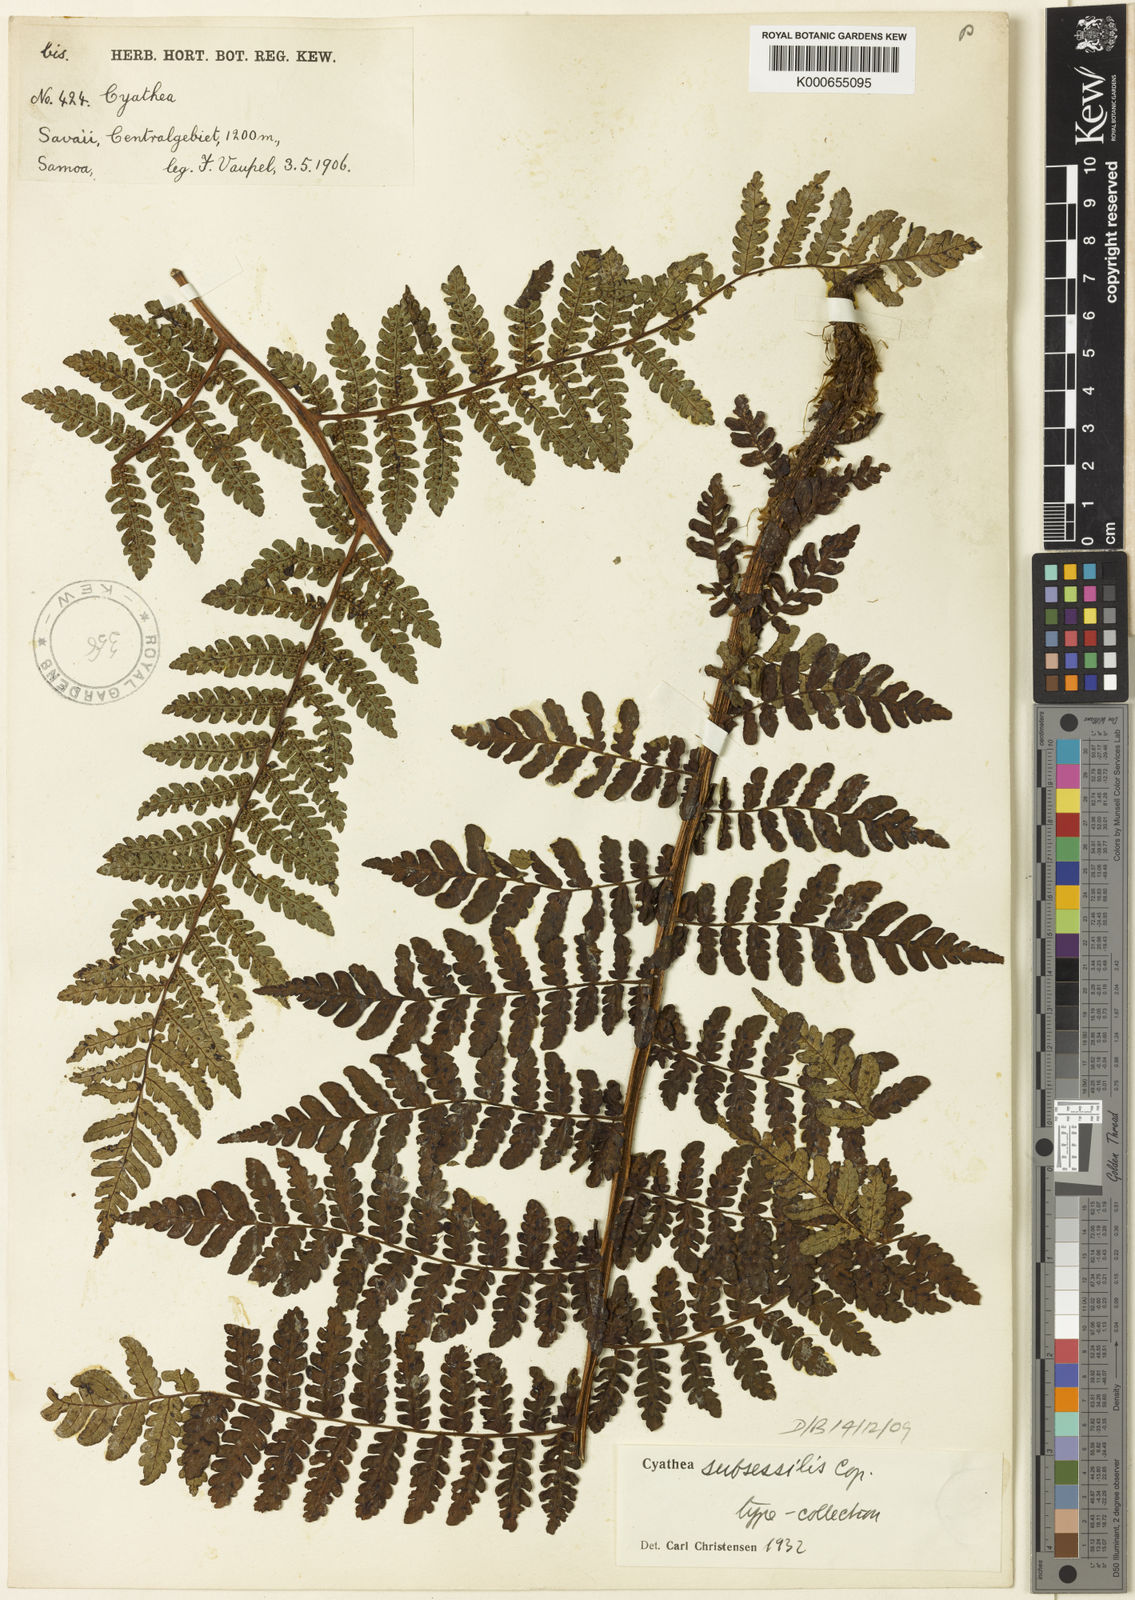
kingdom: Plantae
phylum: Tracheophyta
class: Polypodiopsida
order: Cyatheales
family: Cyatheaceae
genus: Sphaeropteris
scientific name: Sphaeropteris subsessilis
